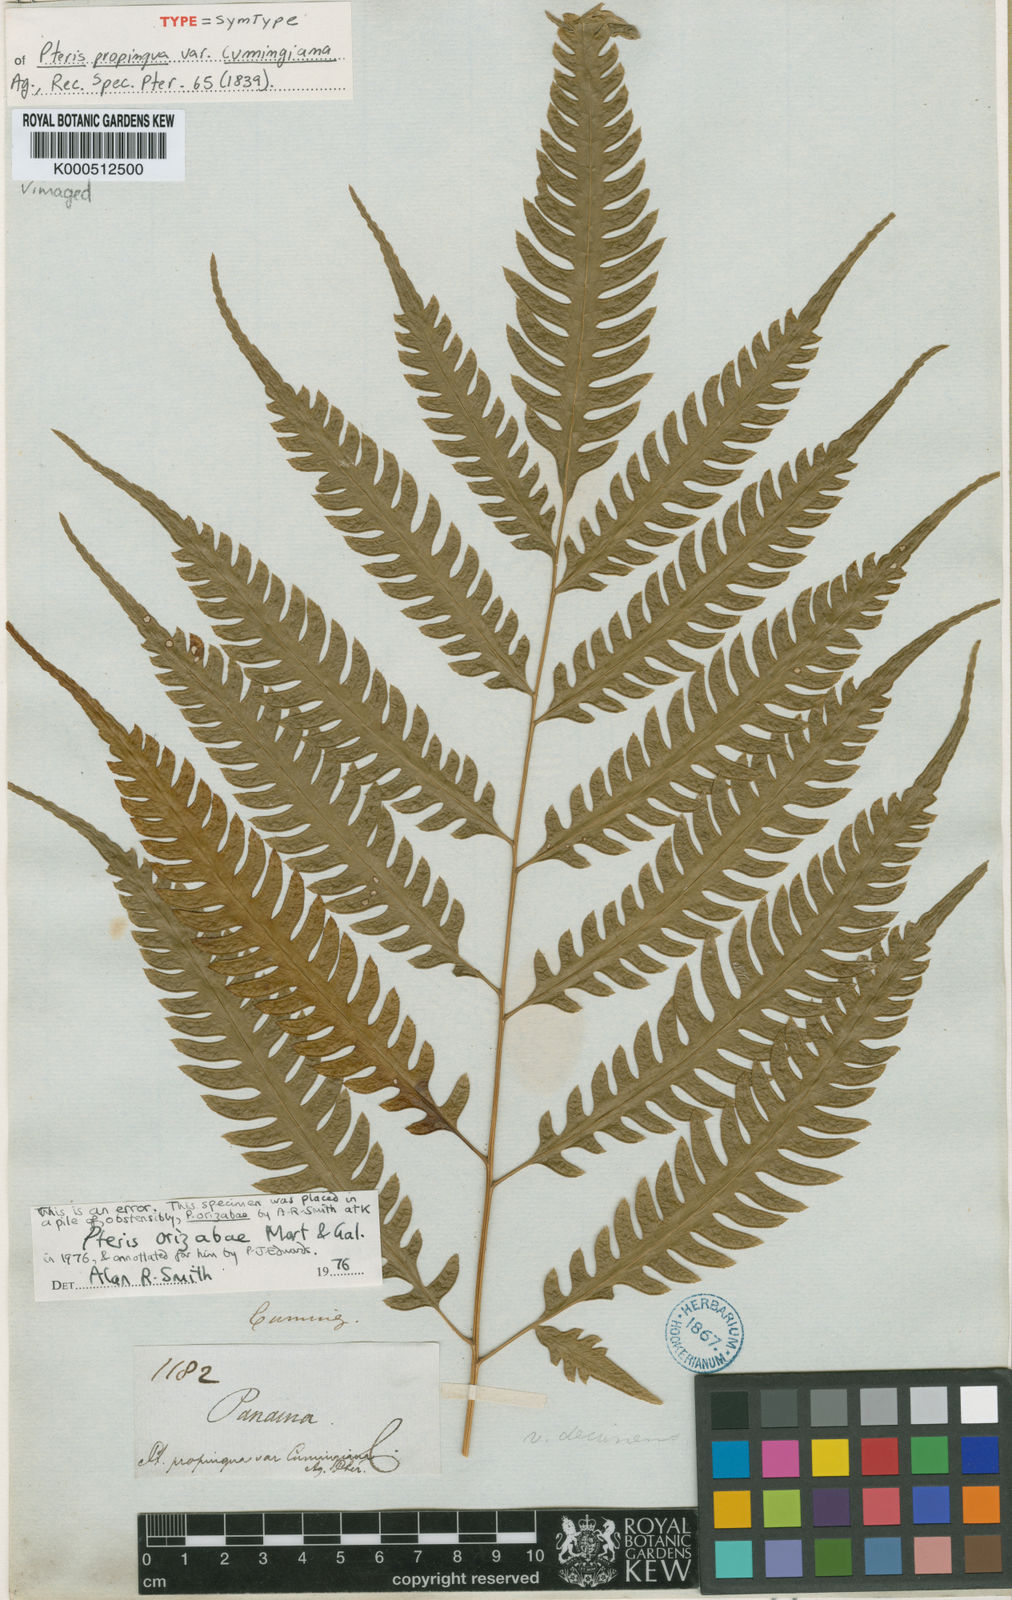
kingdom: Plantae
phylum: Tracheophyta
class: Polypodiopsida
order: Polypodiales
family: Pteridaceae
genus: Pteris
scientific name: Pteris propinqua
